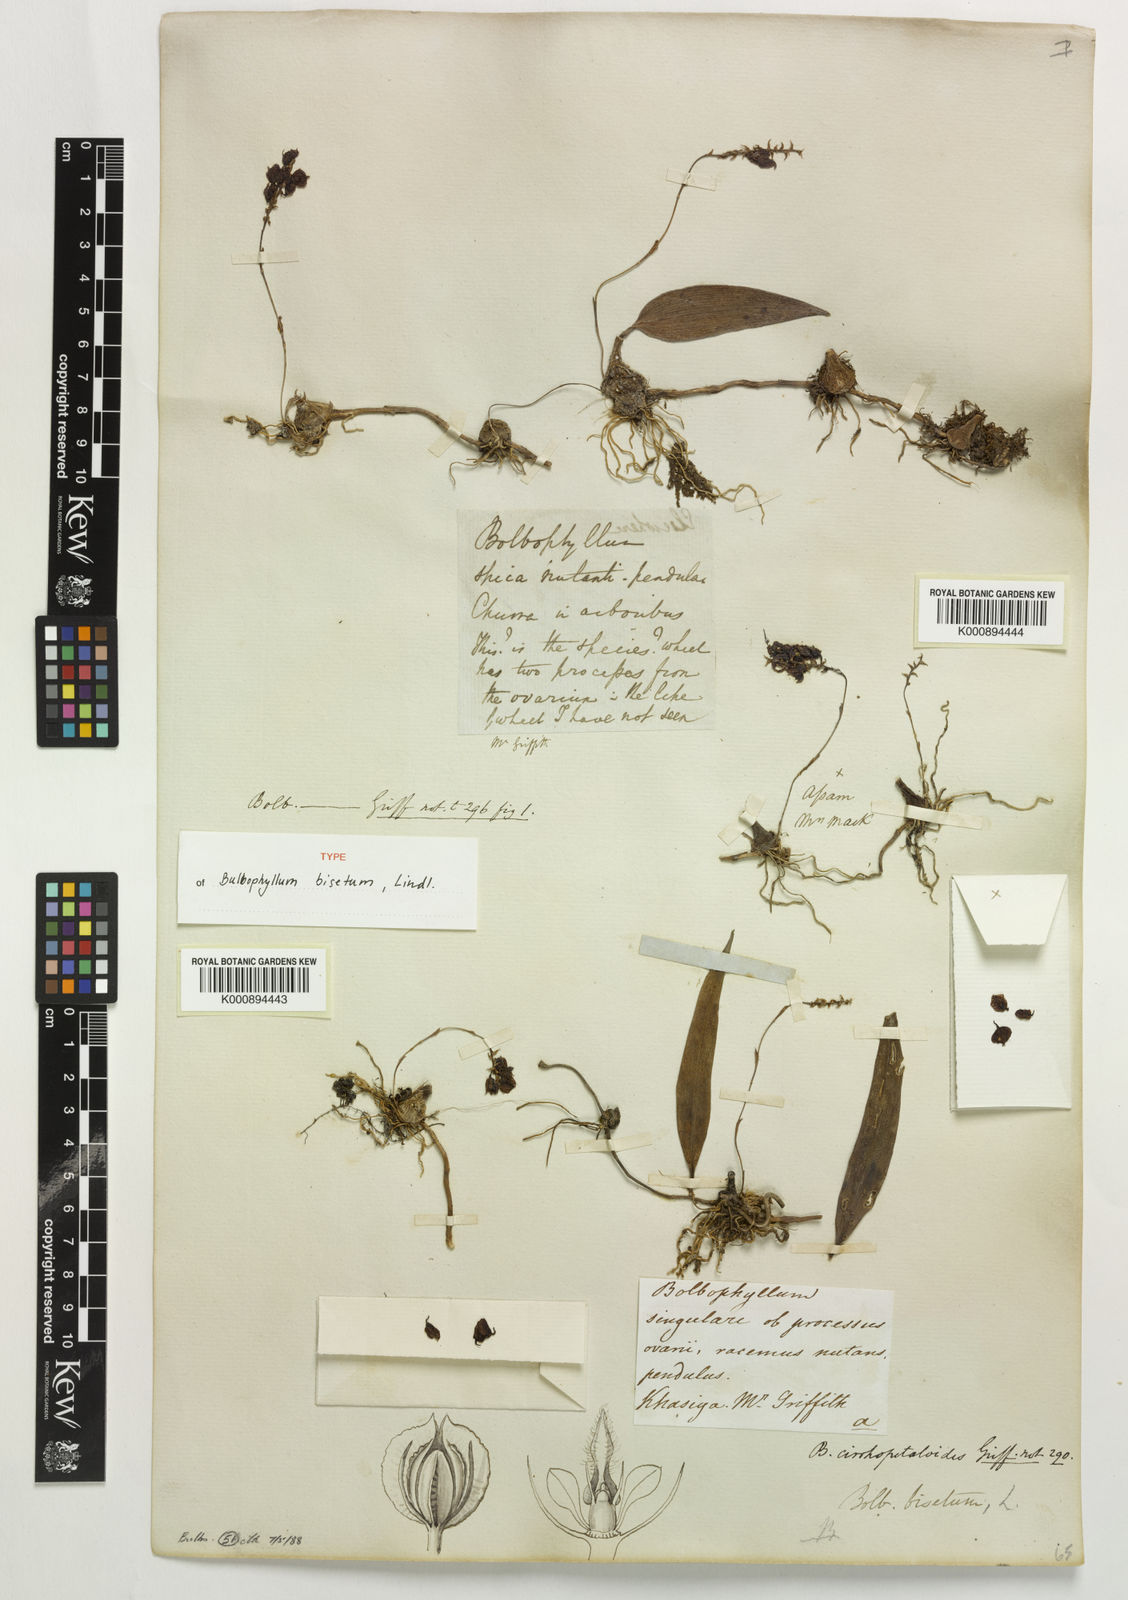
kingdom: Plantae
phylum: Tracheophyta
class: Liliopsida
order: Asparagales
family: Orchidaceae
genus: Bulbophyllum
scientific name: Bulbophyllum bisetum
